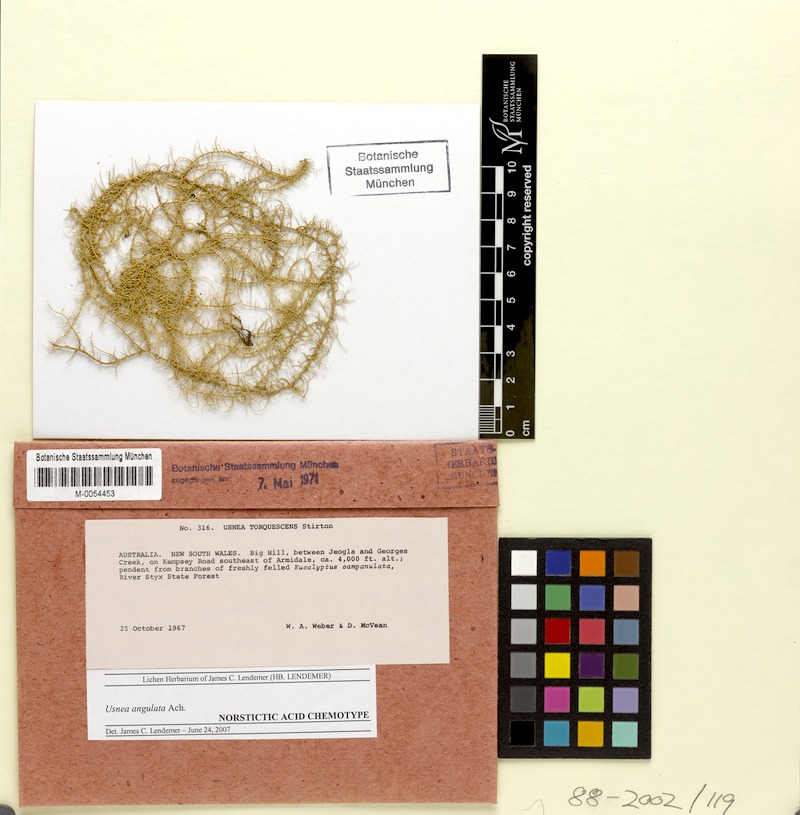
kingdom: Fungi
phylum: Ascomycota
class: Lecanoromycetes
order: Lecanorales
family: Parmeliaceae
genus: Usnea
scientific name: Usnea angulata
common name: Old-man’s beard lichen
